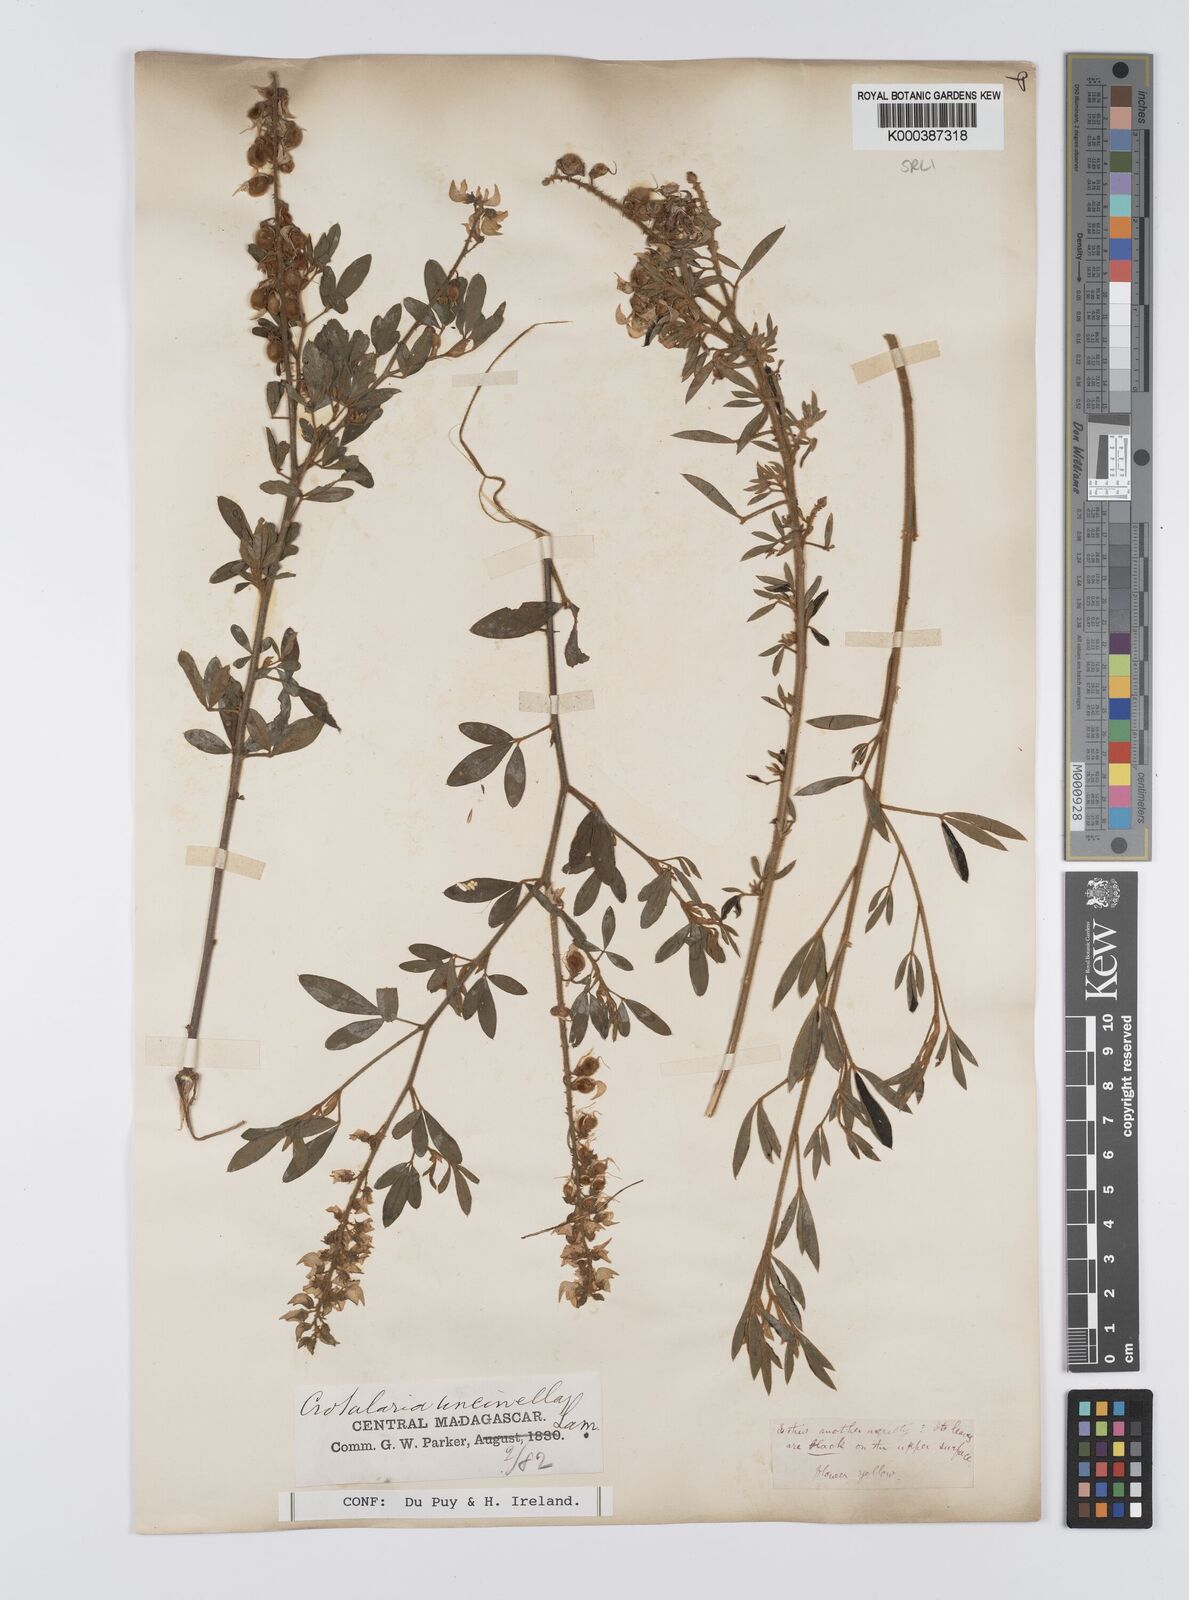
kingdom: Plantae
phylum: Tracheophyta
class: Magnoliopsida
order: Fabales
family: Fabaceae
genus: Crotalaria
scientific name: Crotalaria uncinella
